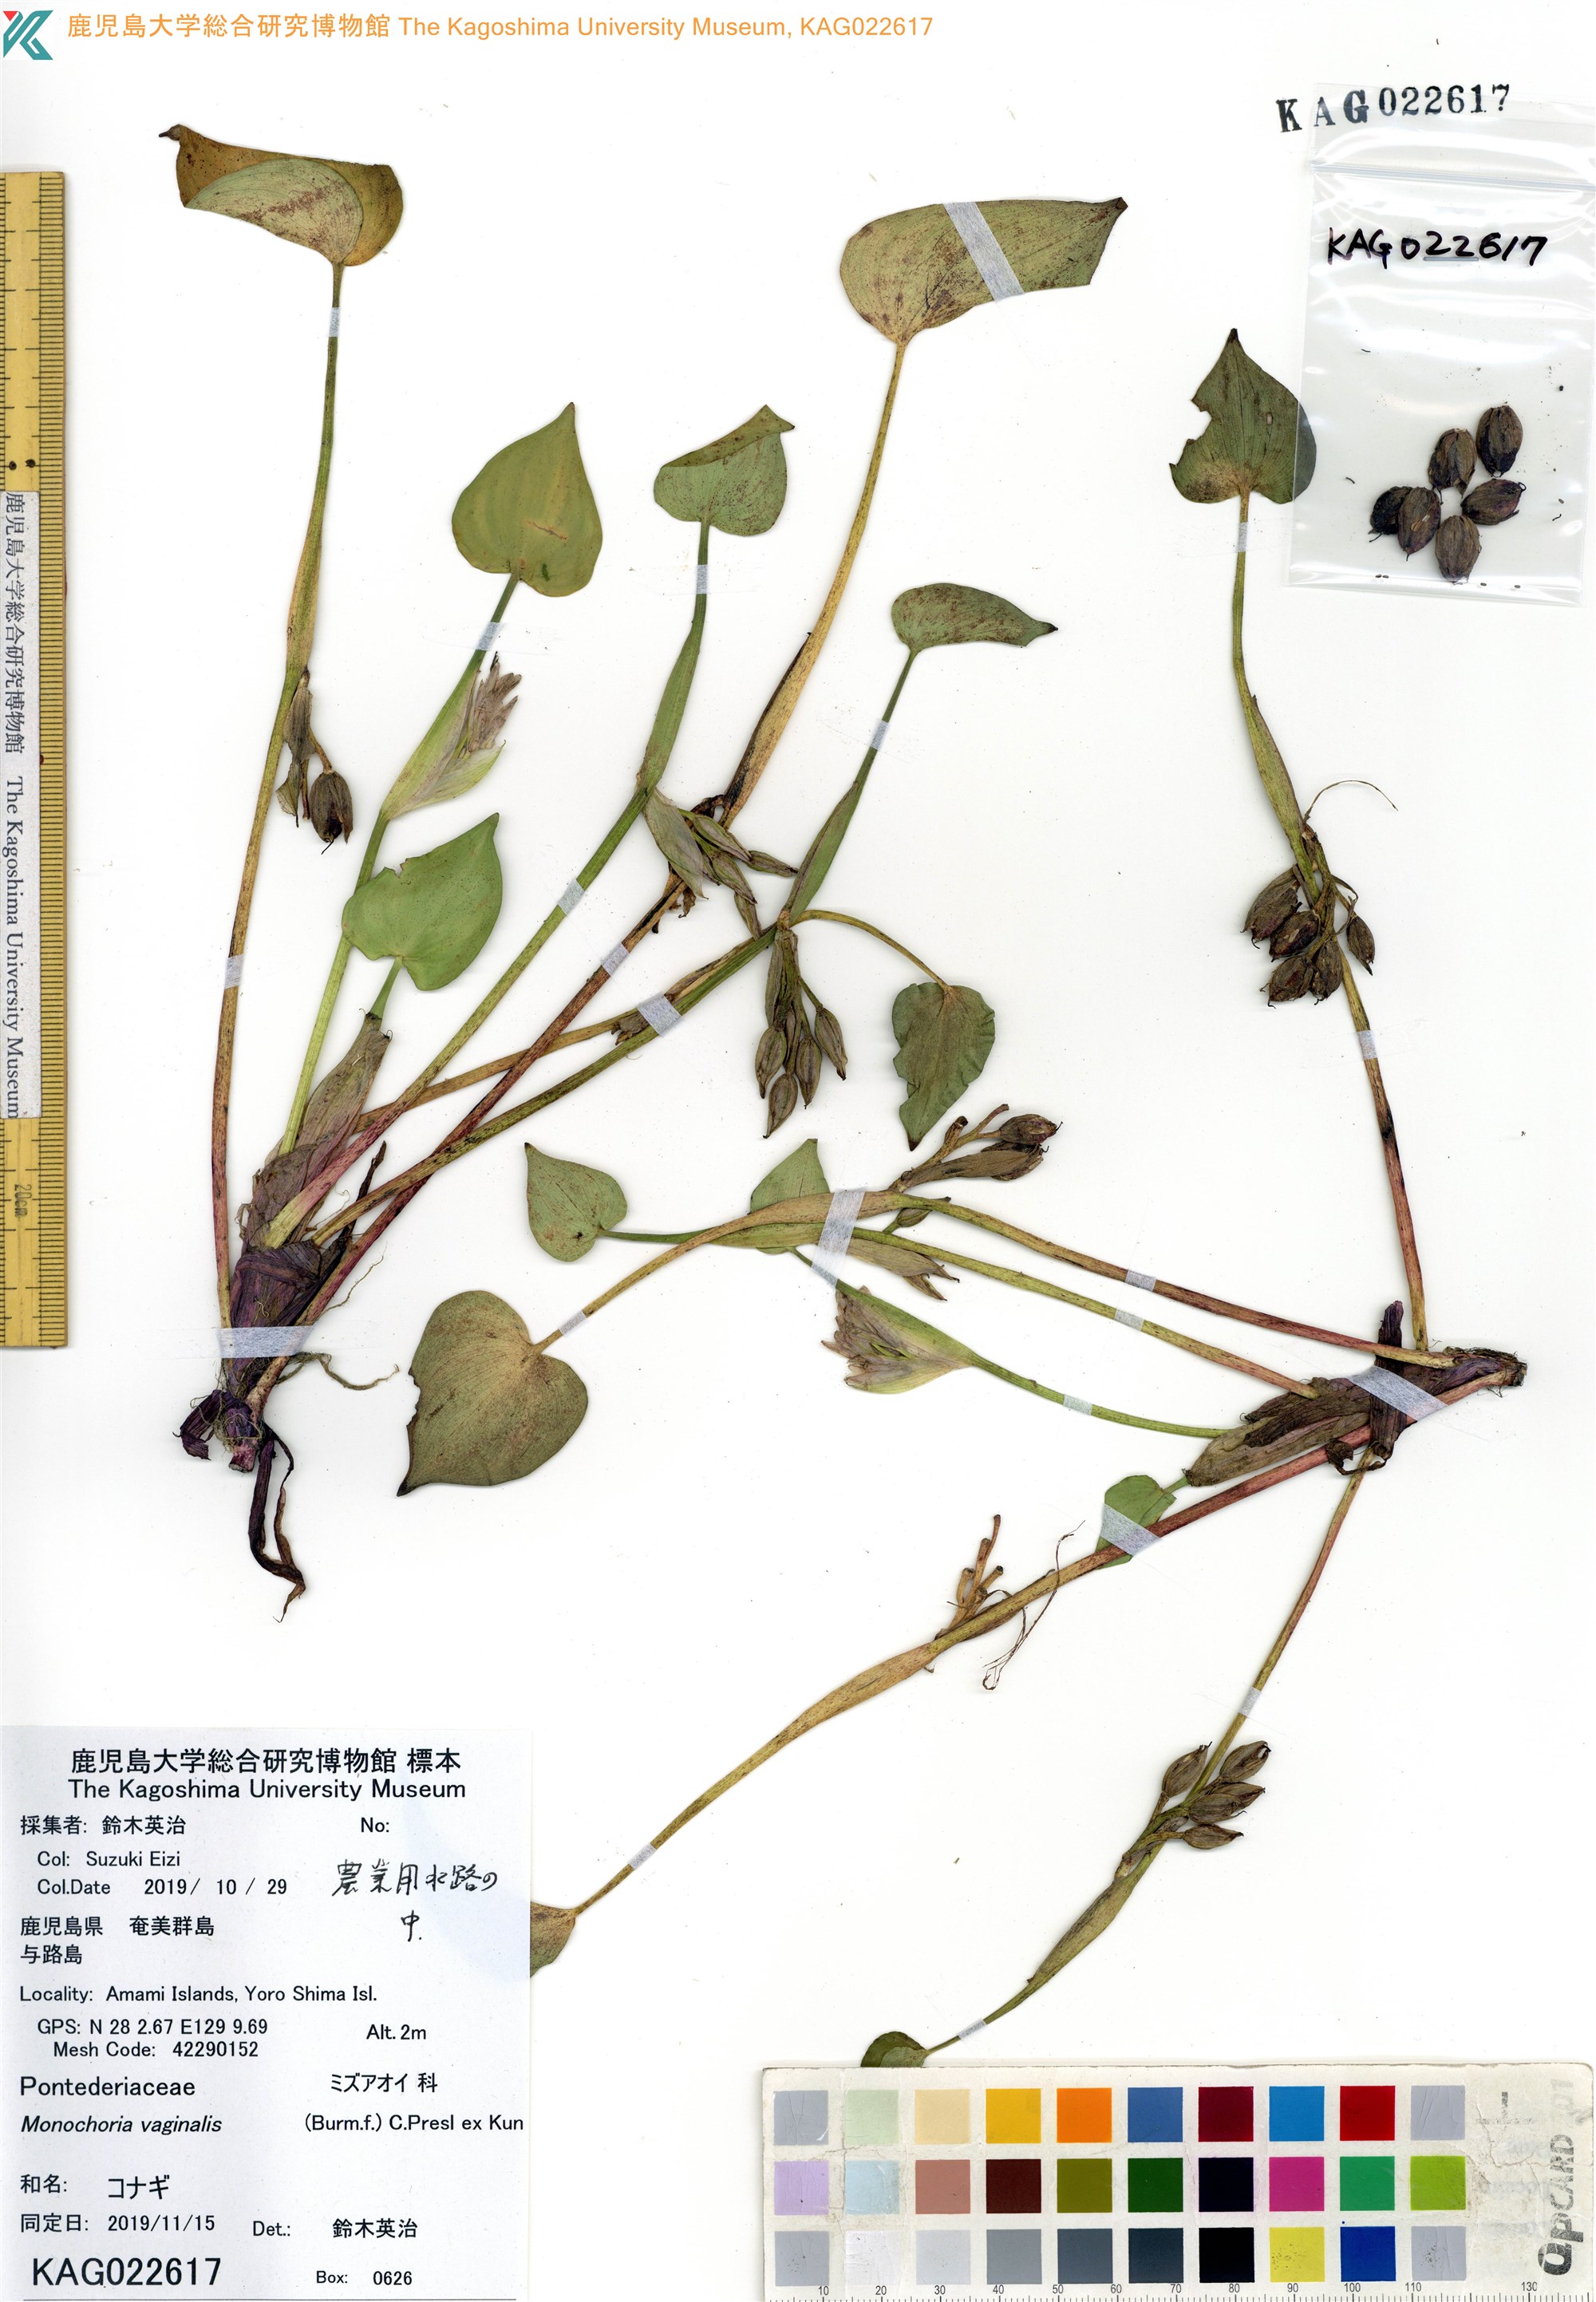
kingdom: Plantae
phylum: Tracheophyta
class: Liliopsida
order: Commelinales
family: Pontederiaceae
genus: Pontederia
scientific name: Pontederia vaginalis
